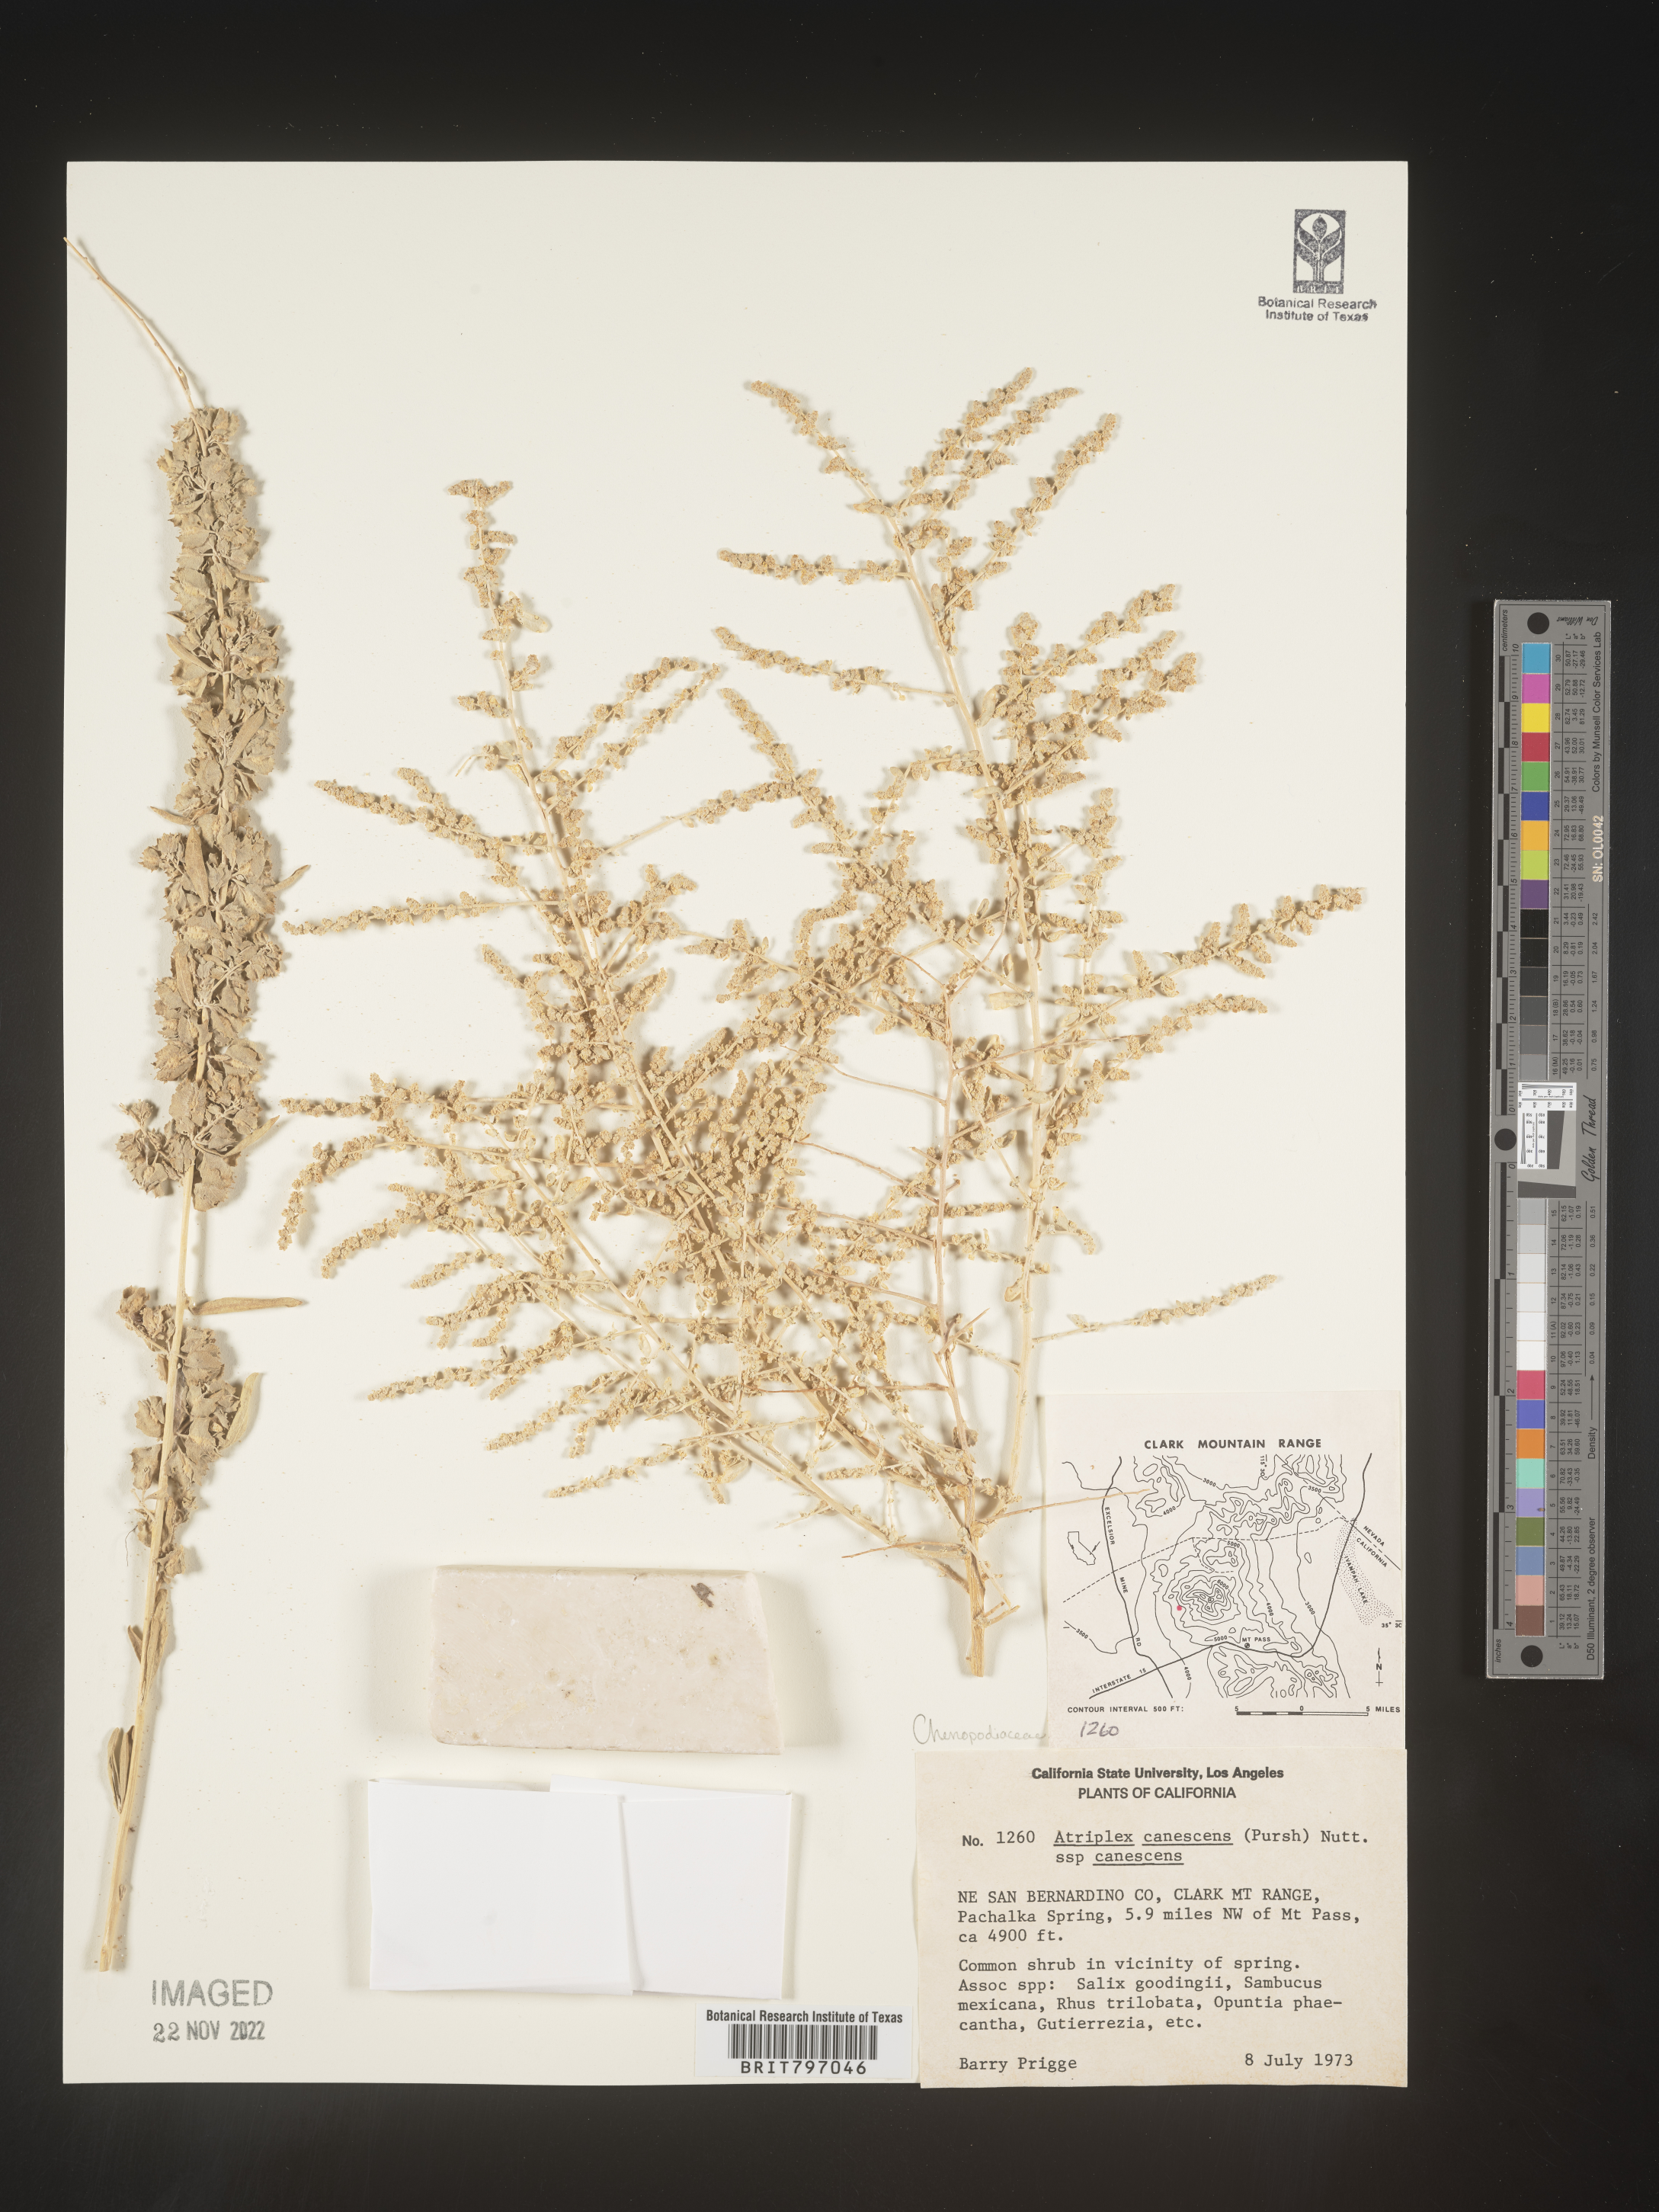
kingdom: Plantae
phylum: Tracheophyta
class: Magnoliopsida
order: Caryophyllales
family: Amaranthaceae
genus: Atriplex
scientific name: Atriplex canescens
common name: Four-wing saltbush
